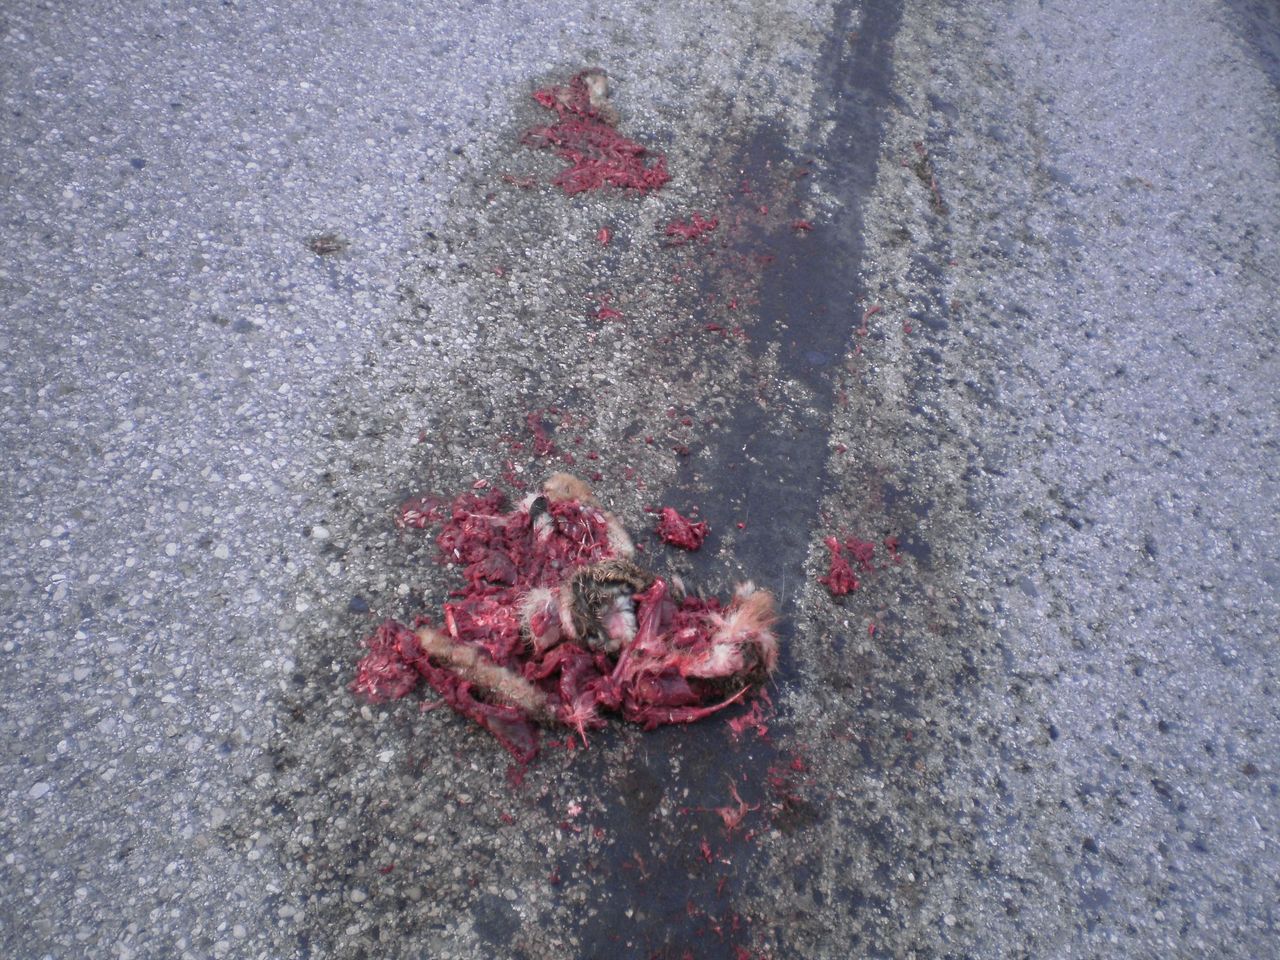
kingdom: Animalia
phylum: Chordata
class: Mammalia
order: Lagomorpha
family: Leporidae
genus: Lepus
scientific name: Lepus europaeus
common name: European hare
